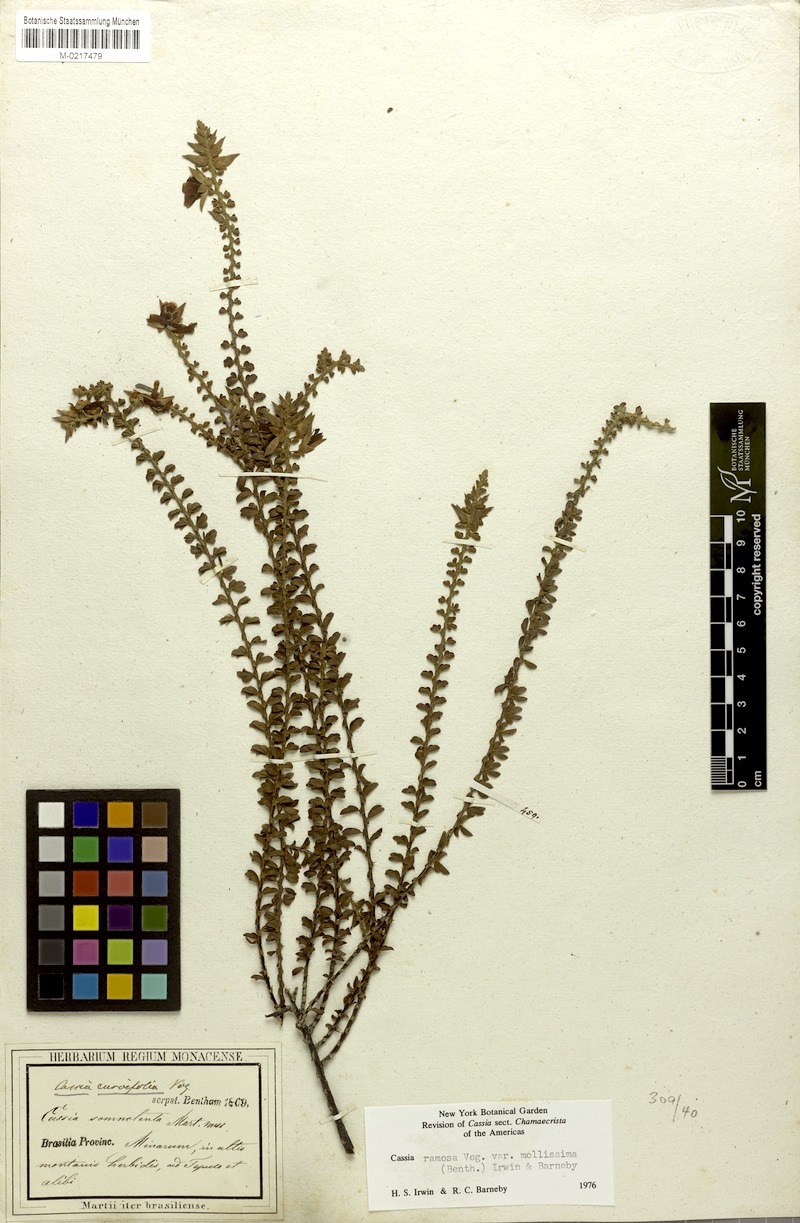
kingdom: Plantae
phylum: Tracheophyta
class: Magnoliopsida
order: Fabales
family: Fabaceae
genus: Chamaecrista
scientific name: Chamaecrista ramosa
